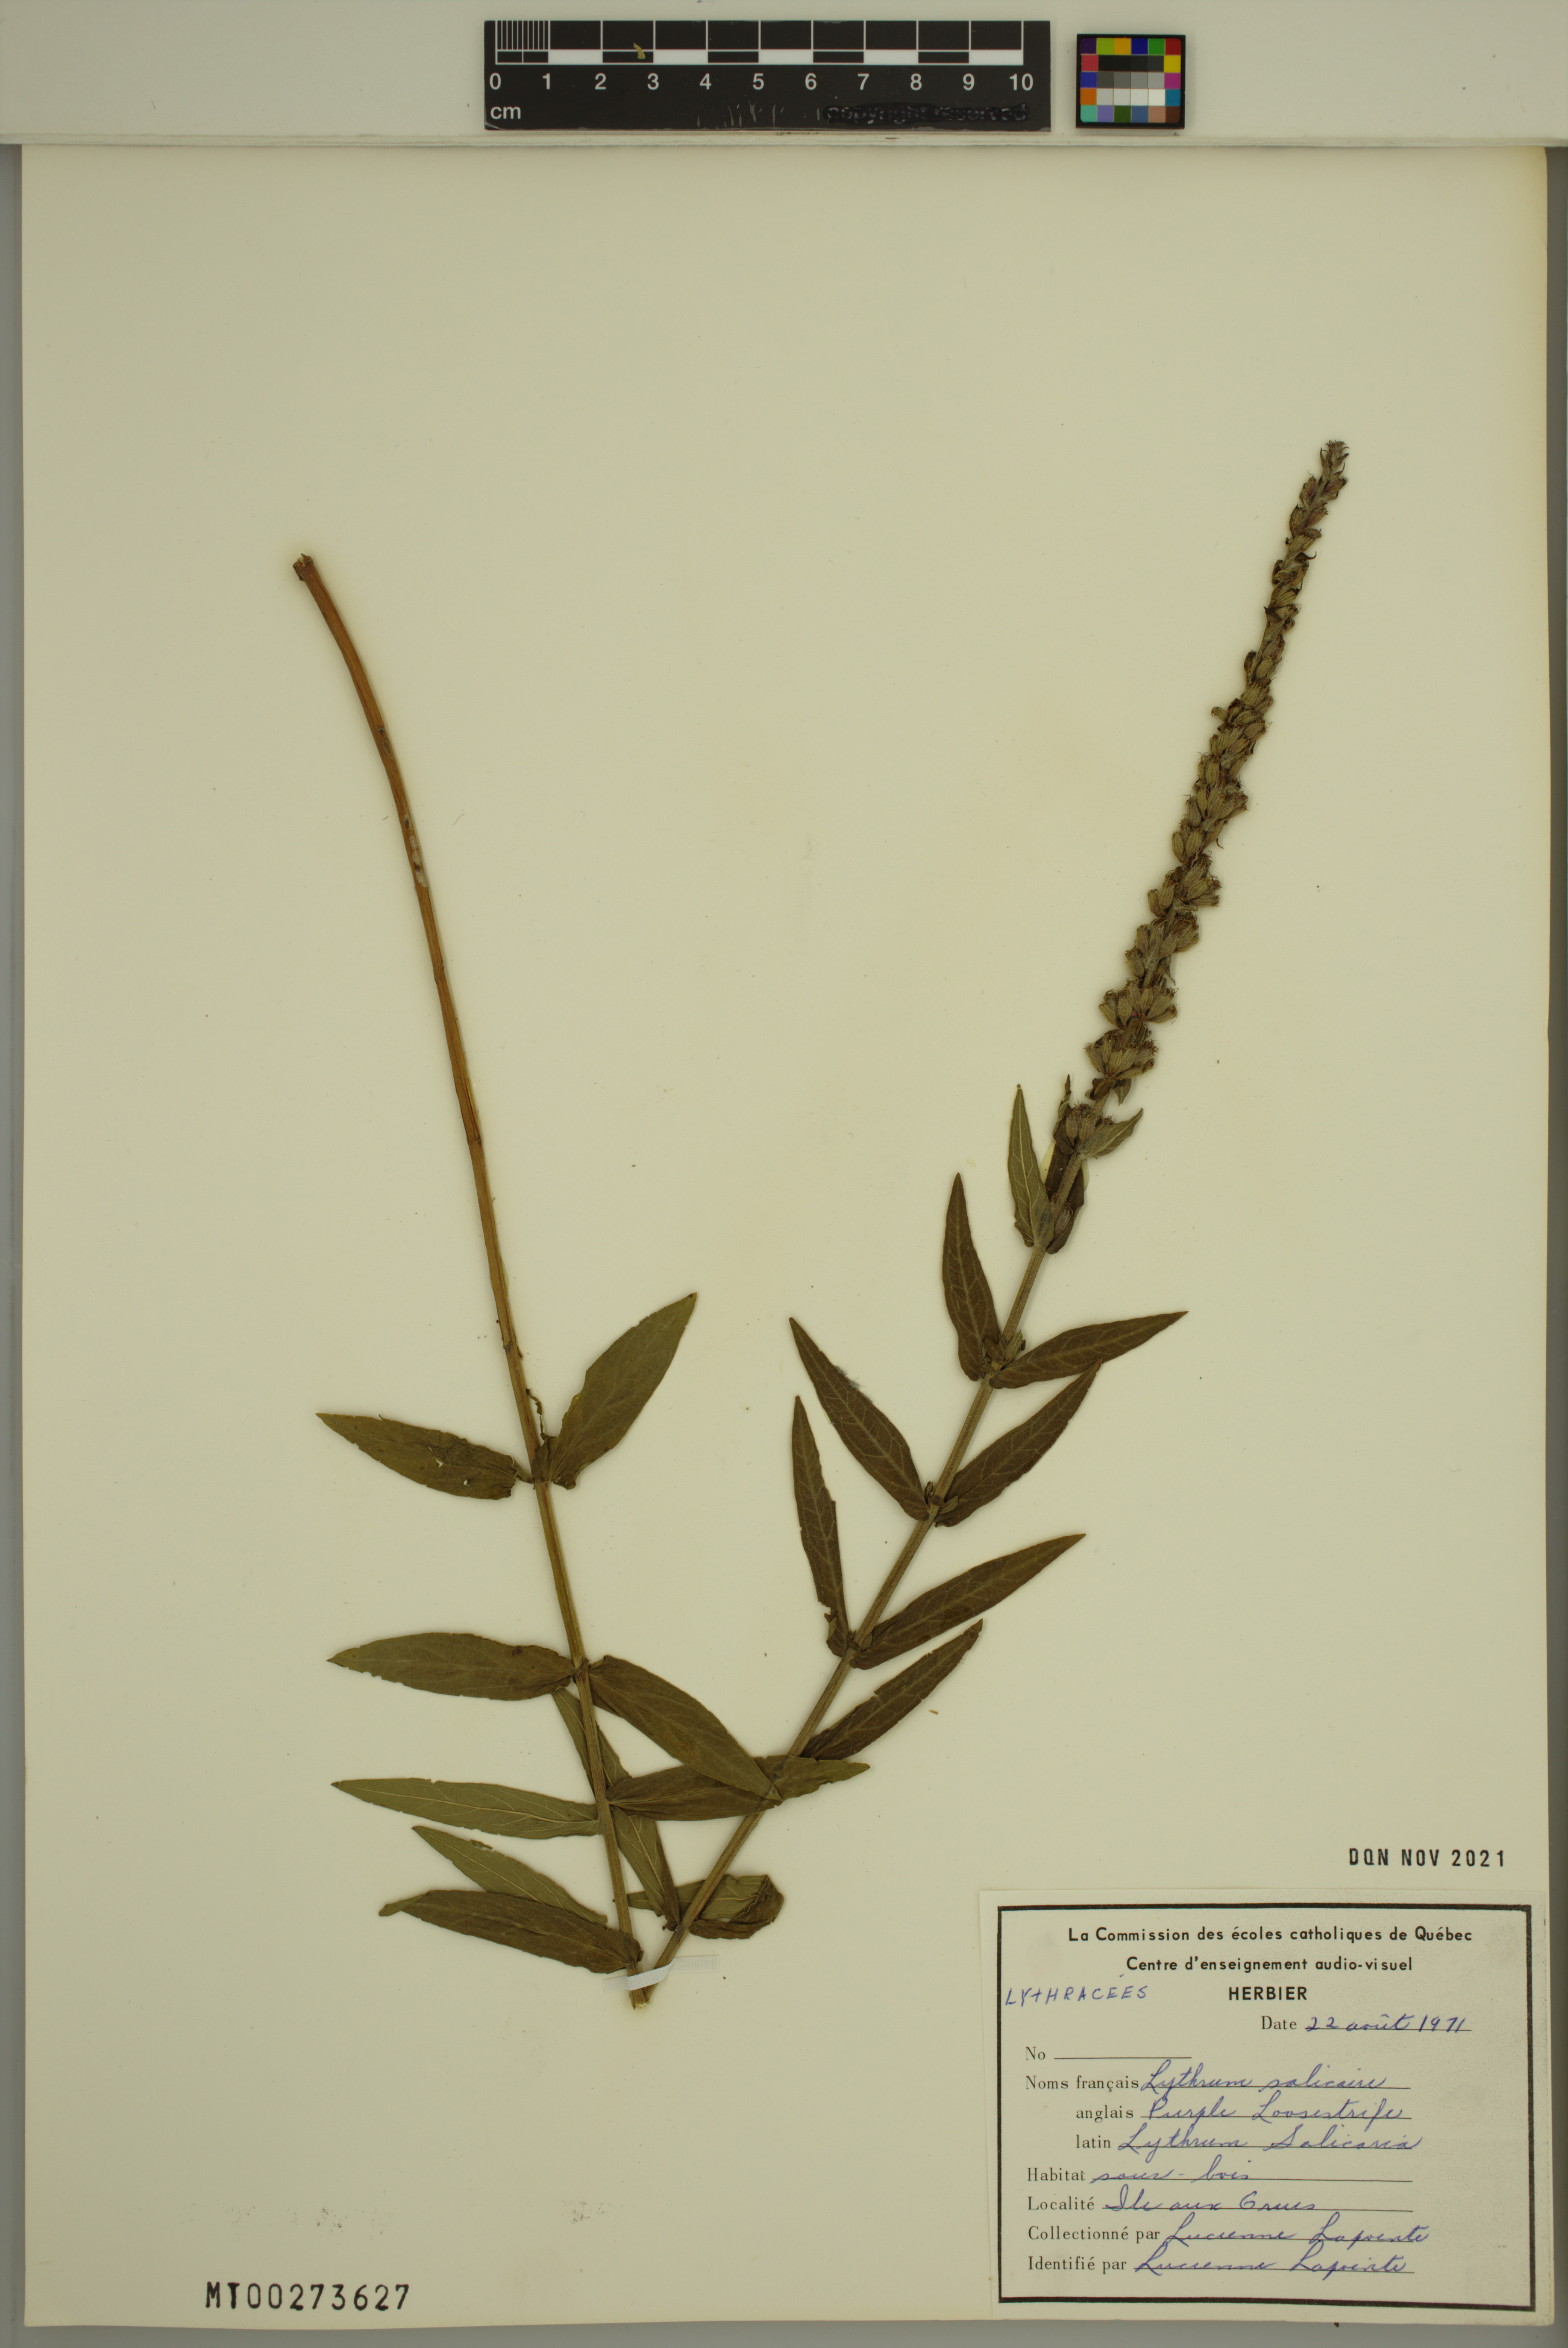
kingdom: Plantae
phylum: Tracheophyta
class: Magnoliopsida
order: Myrtales
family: Lythraceae
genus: Lythrum
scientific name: Lythrum salicaria
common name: Purple loosestrife
